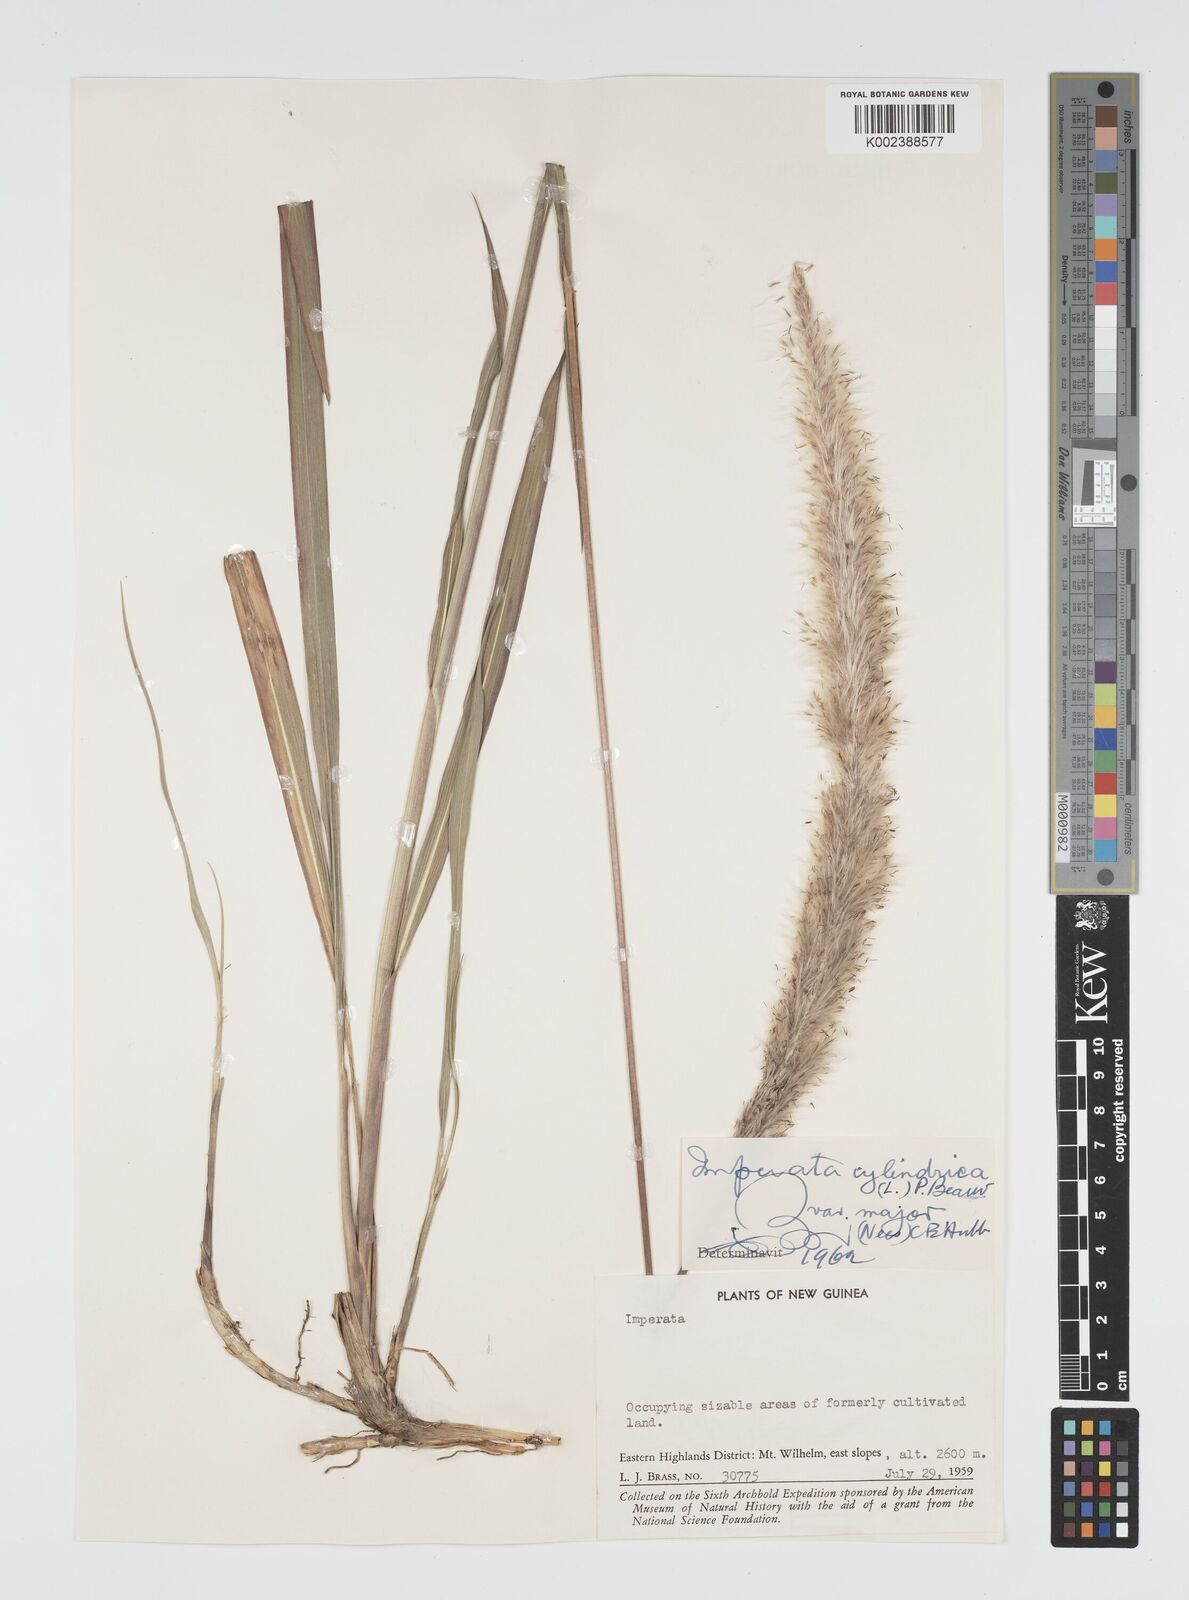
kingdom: Plantae
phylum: Tracheophyta
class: Liliopsida
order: Poales
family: Poaceae
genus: Imperata
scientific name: Imperata cylindrica
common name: Cogongrass
